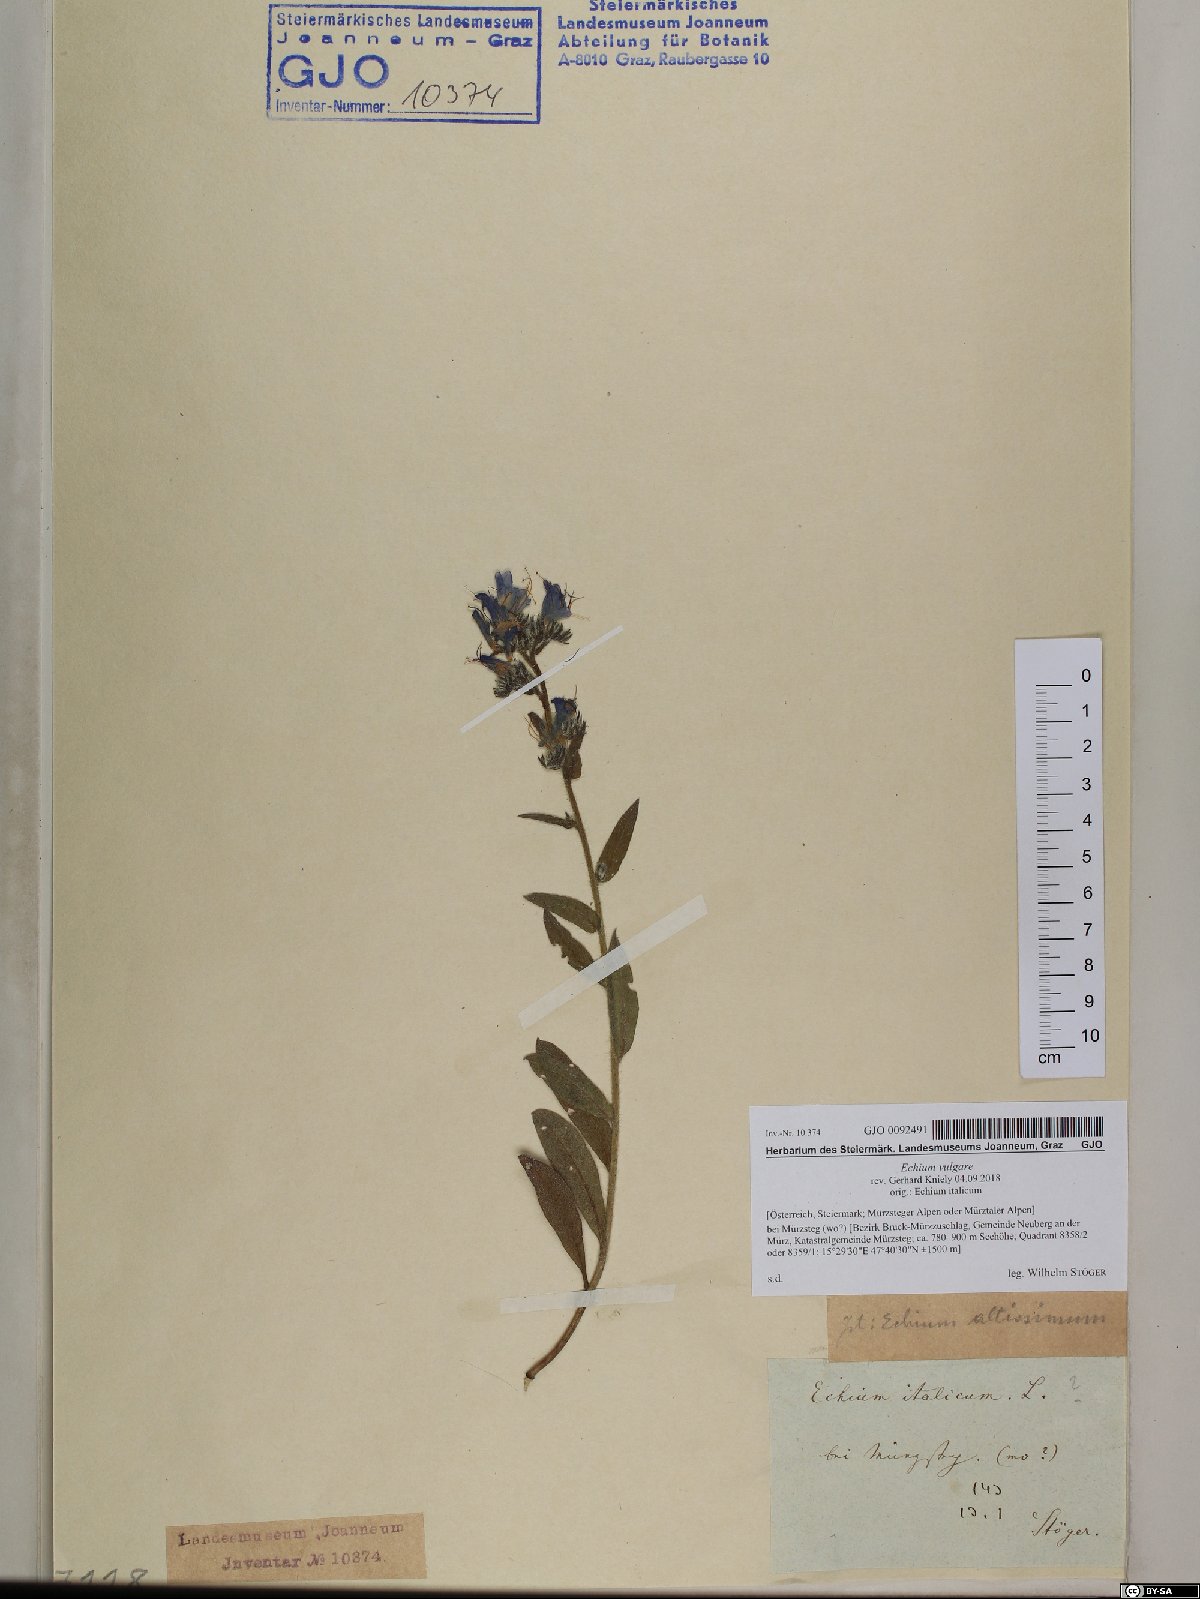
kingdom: Plantae
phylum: Tracheophyta
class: Magnoliopsida
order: Boraginales
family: Boraginaceae
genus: Echium
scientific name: Echium vulgare
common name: Common viper's bugloss
